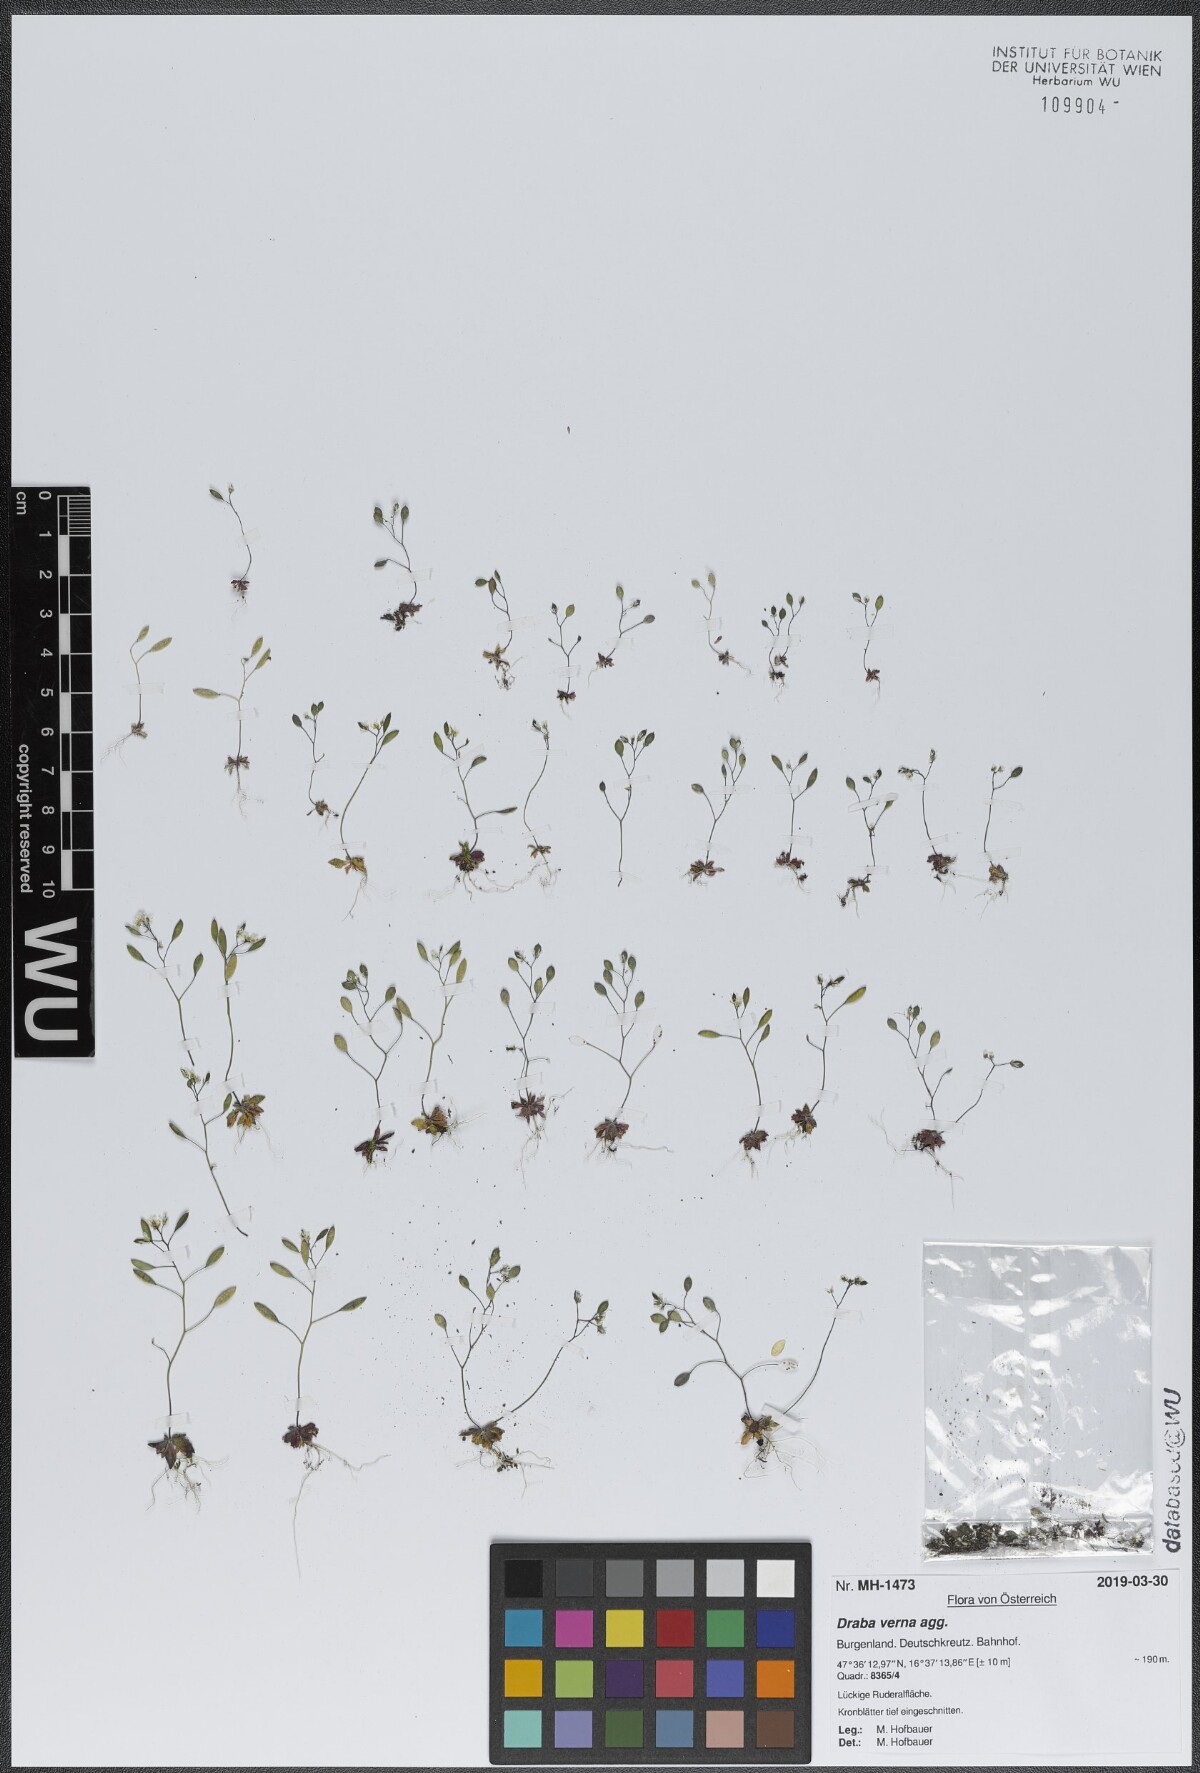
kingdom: Plantae
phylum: Tracheophyta
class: Magnoliopsida
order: Brassicales
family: Brassicaceae
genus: Draba
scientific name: Draba verna
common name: Spring draba
